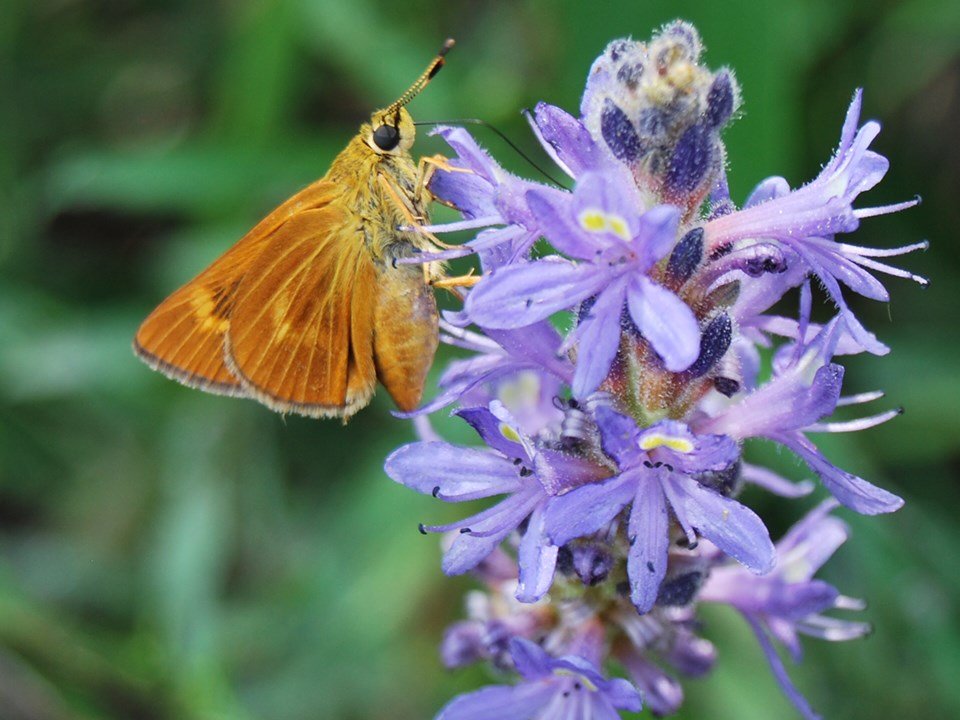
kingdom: Animalia
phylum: Arthropoda
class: Insecta
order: Lepidoptera
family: Hesperiidae
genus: Problema
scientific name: Problema byssus
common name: Byssus Skipper
